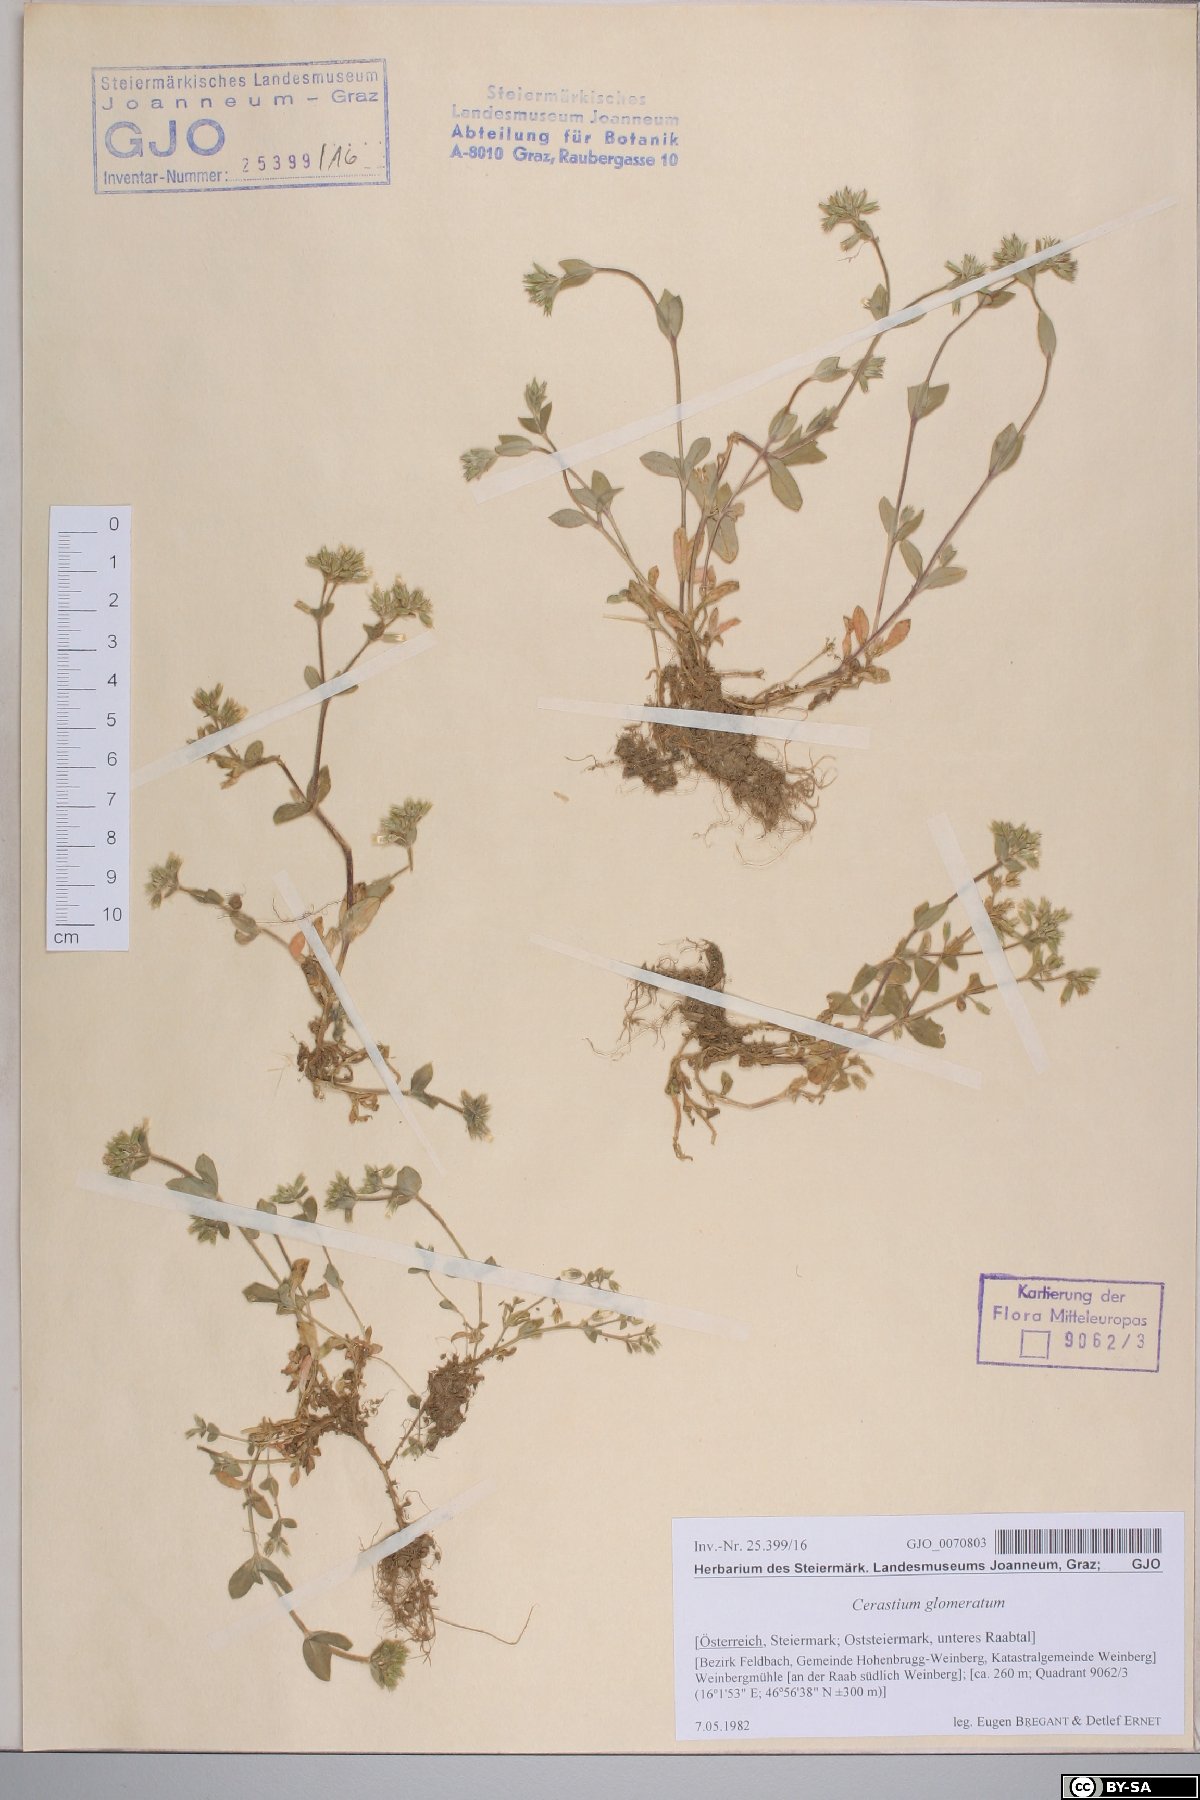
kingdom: Plantae
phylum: Tracheophyta
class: Magnoliopsida
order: Caryophyllales
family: Caryophyllaceae
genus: Cerastium
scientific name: Cerastium glomeratum
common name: Sticky chickweed
